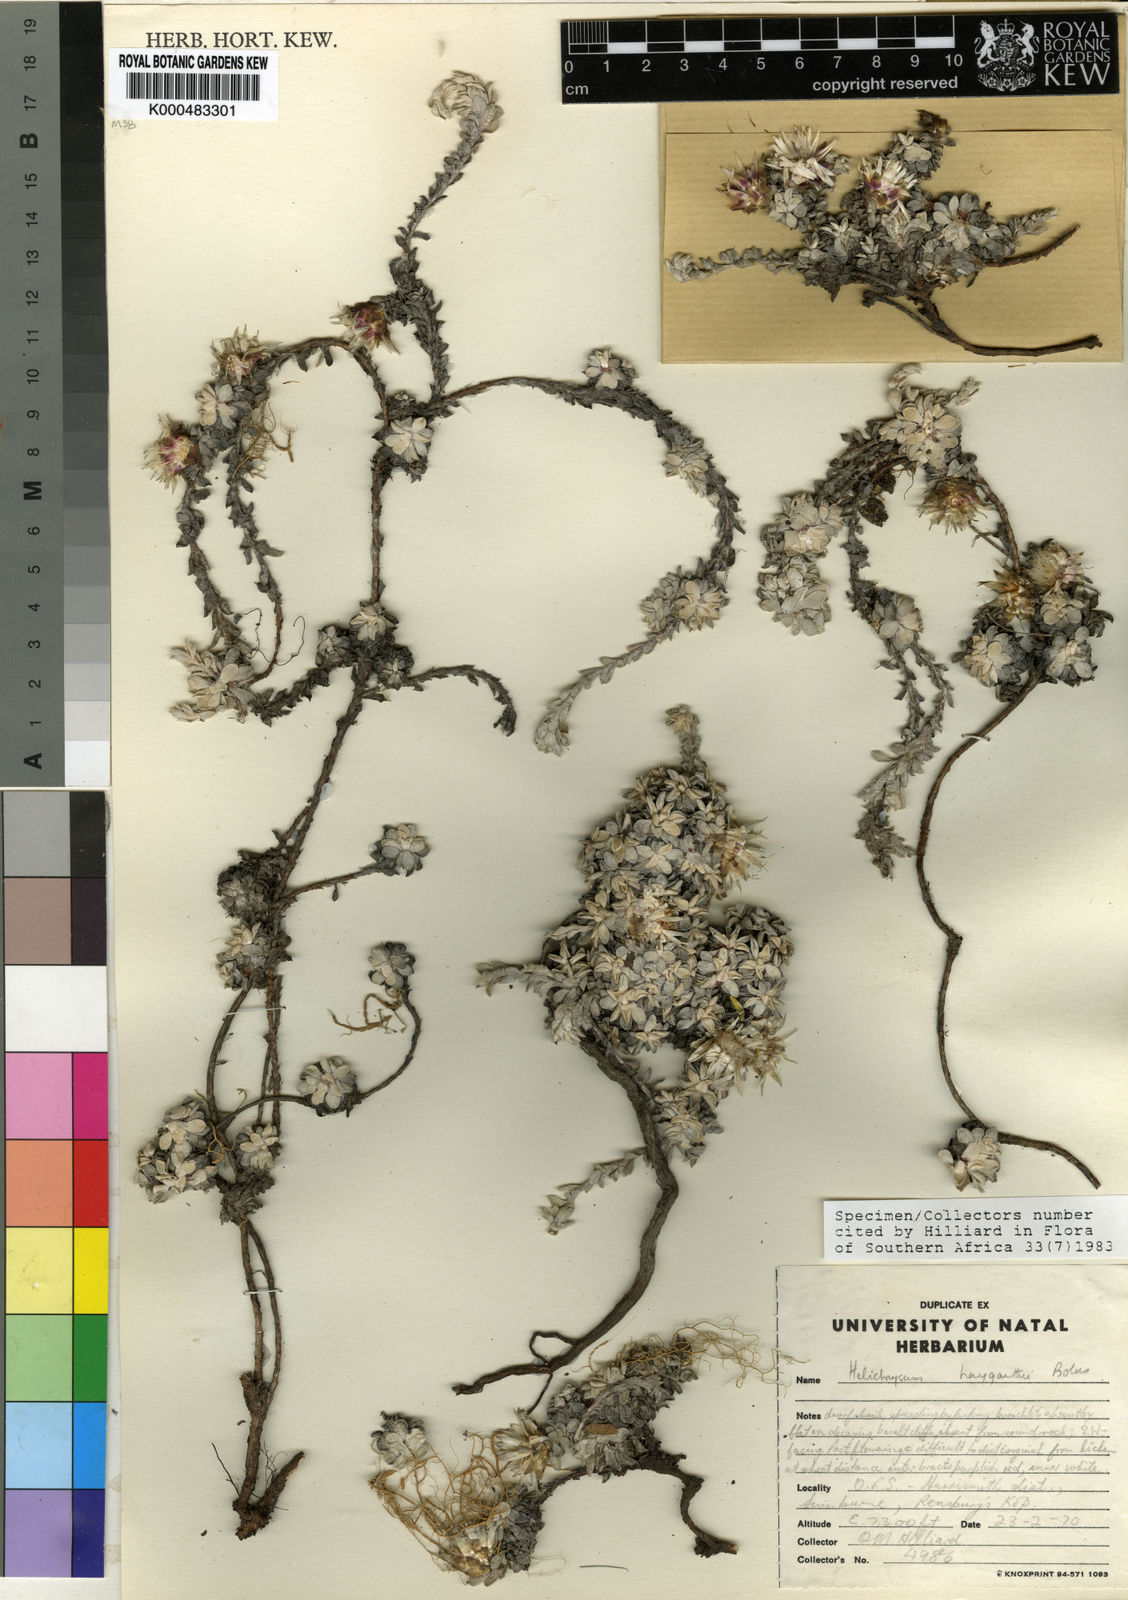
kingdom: Plantae
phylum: Tracheophyta
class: Magnoliopsida
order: Asterales
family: Asteraceae
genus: Helichrysum
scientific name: Helichrysum haygarthii
